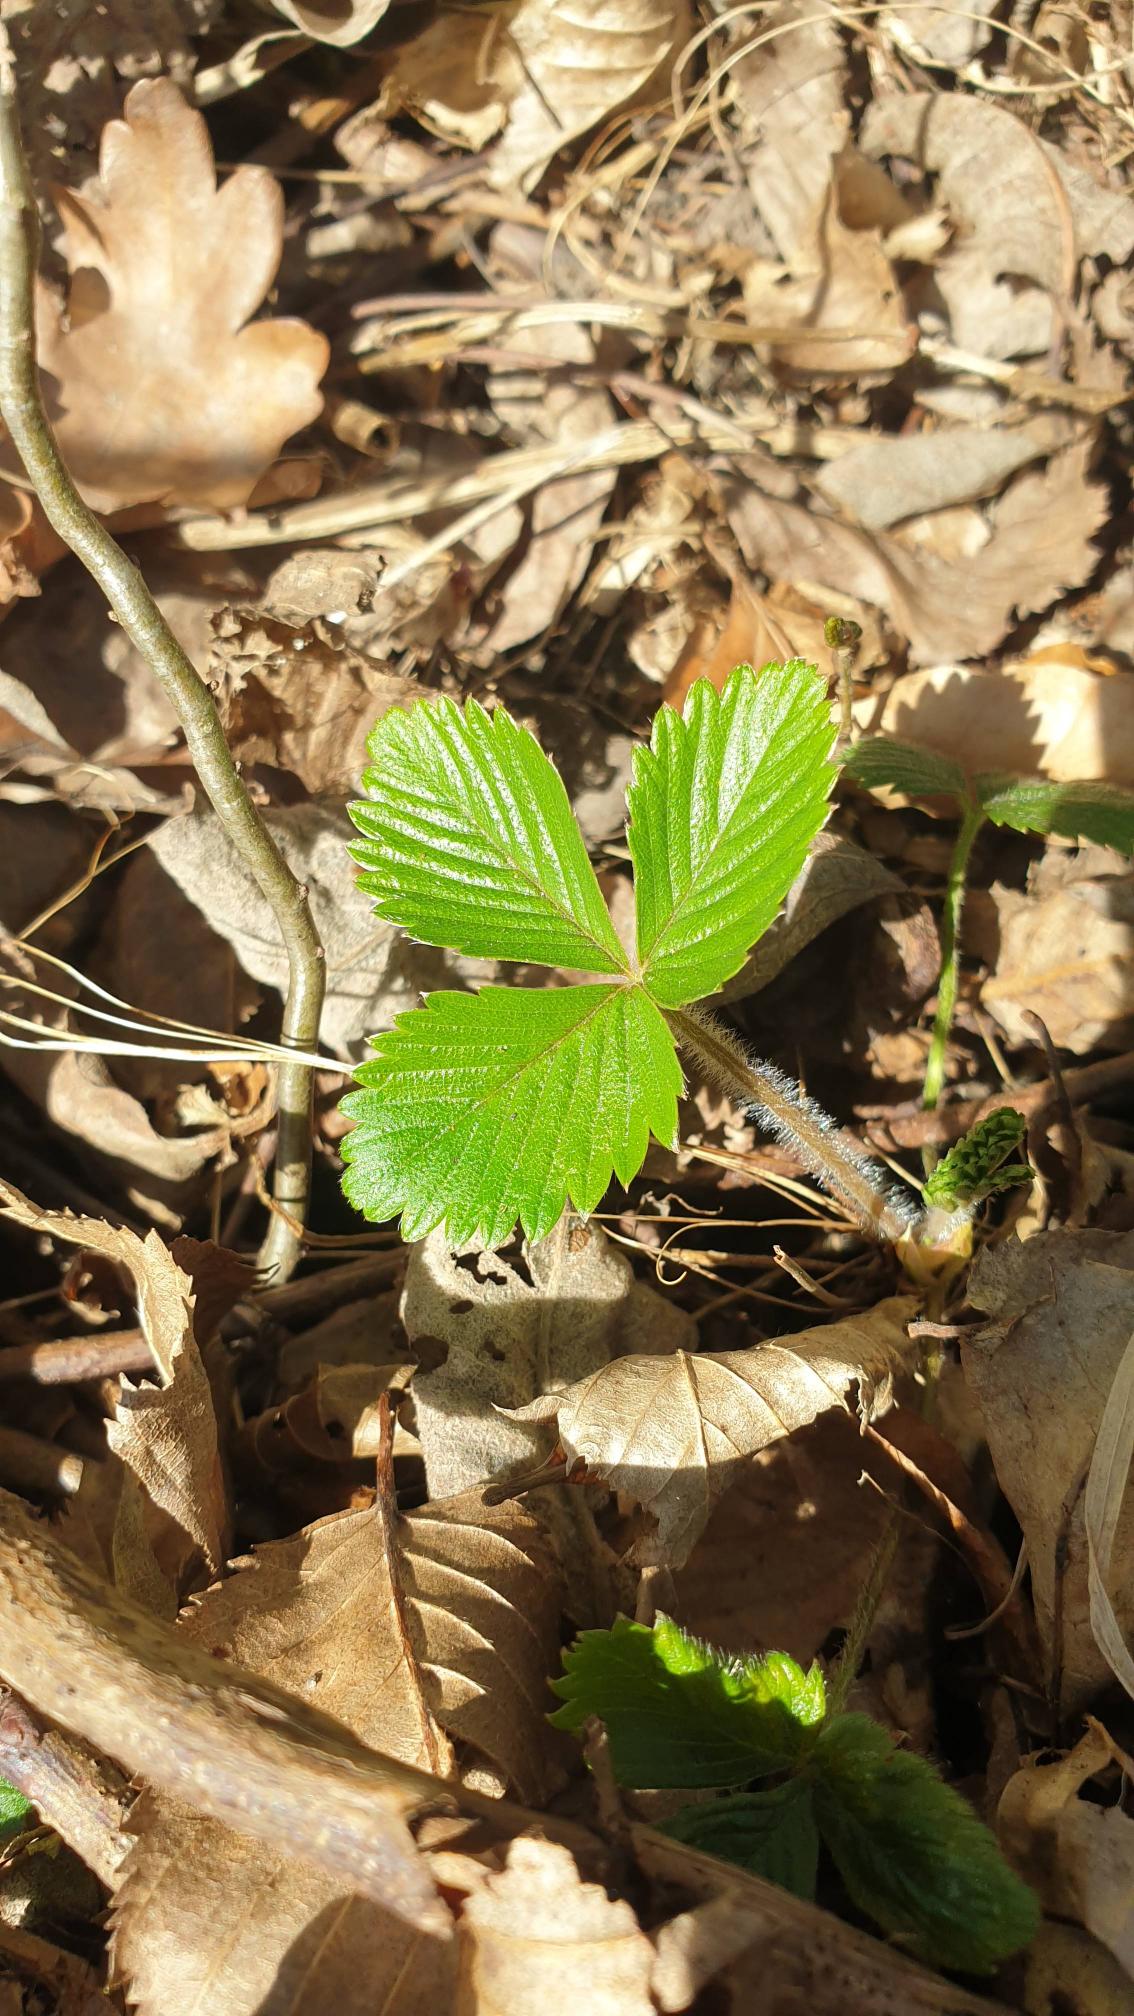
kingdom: Plantae
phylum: Tracheophyta
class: Magnoliopsida
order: Rosales
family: Rosaceae
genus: Fragaria
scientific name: Fragaria vesca
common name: Skov-jordbær
